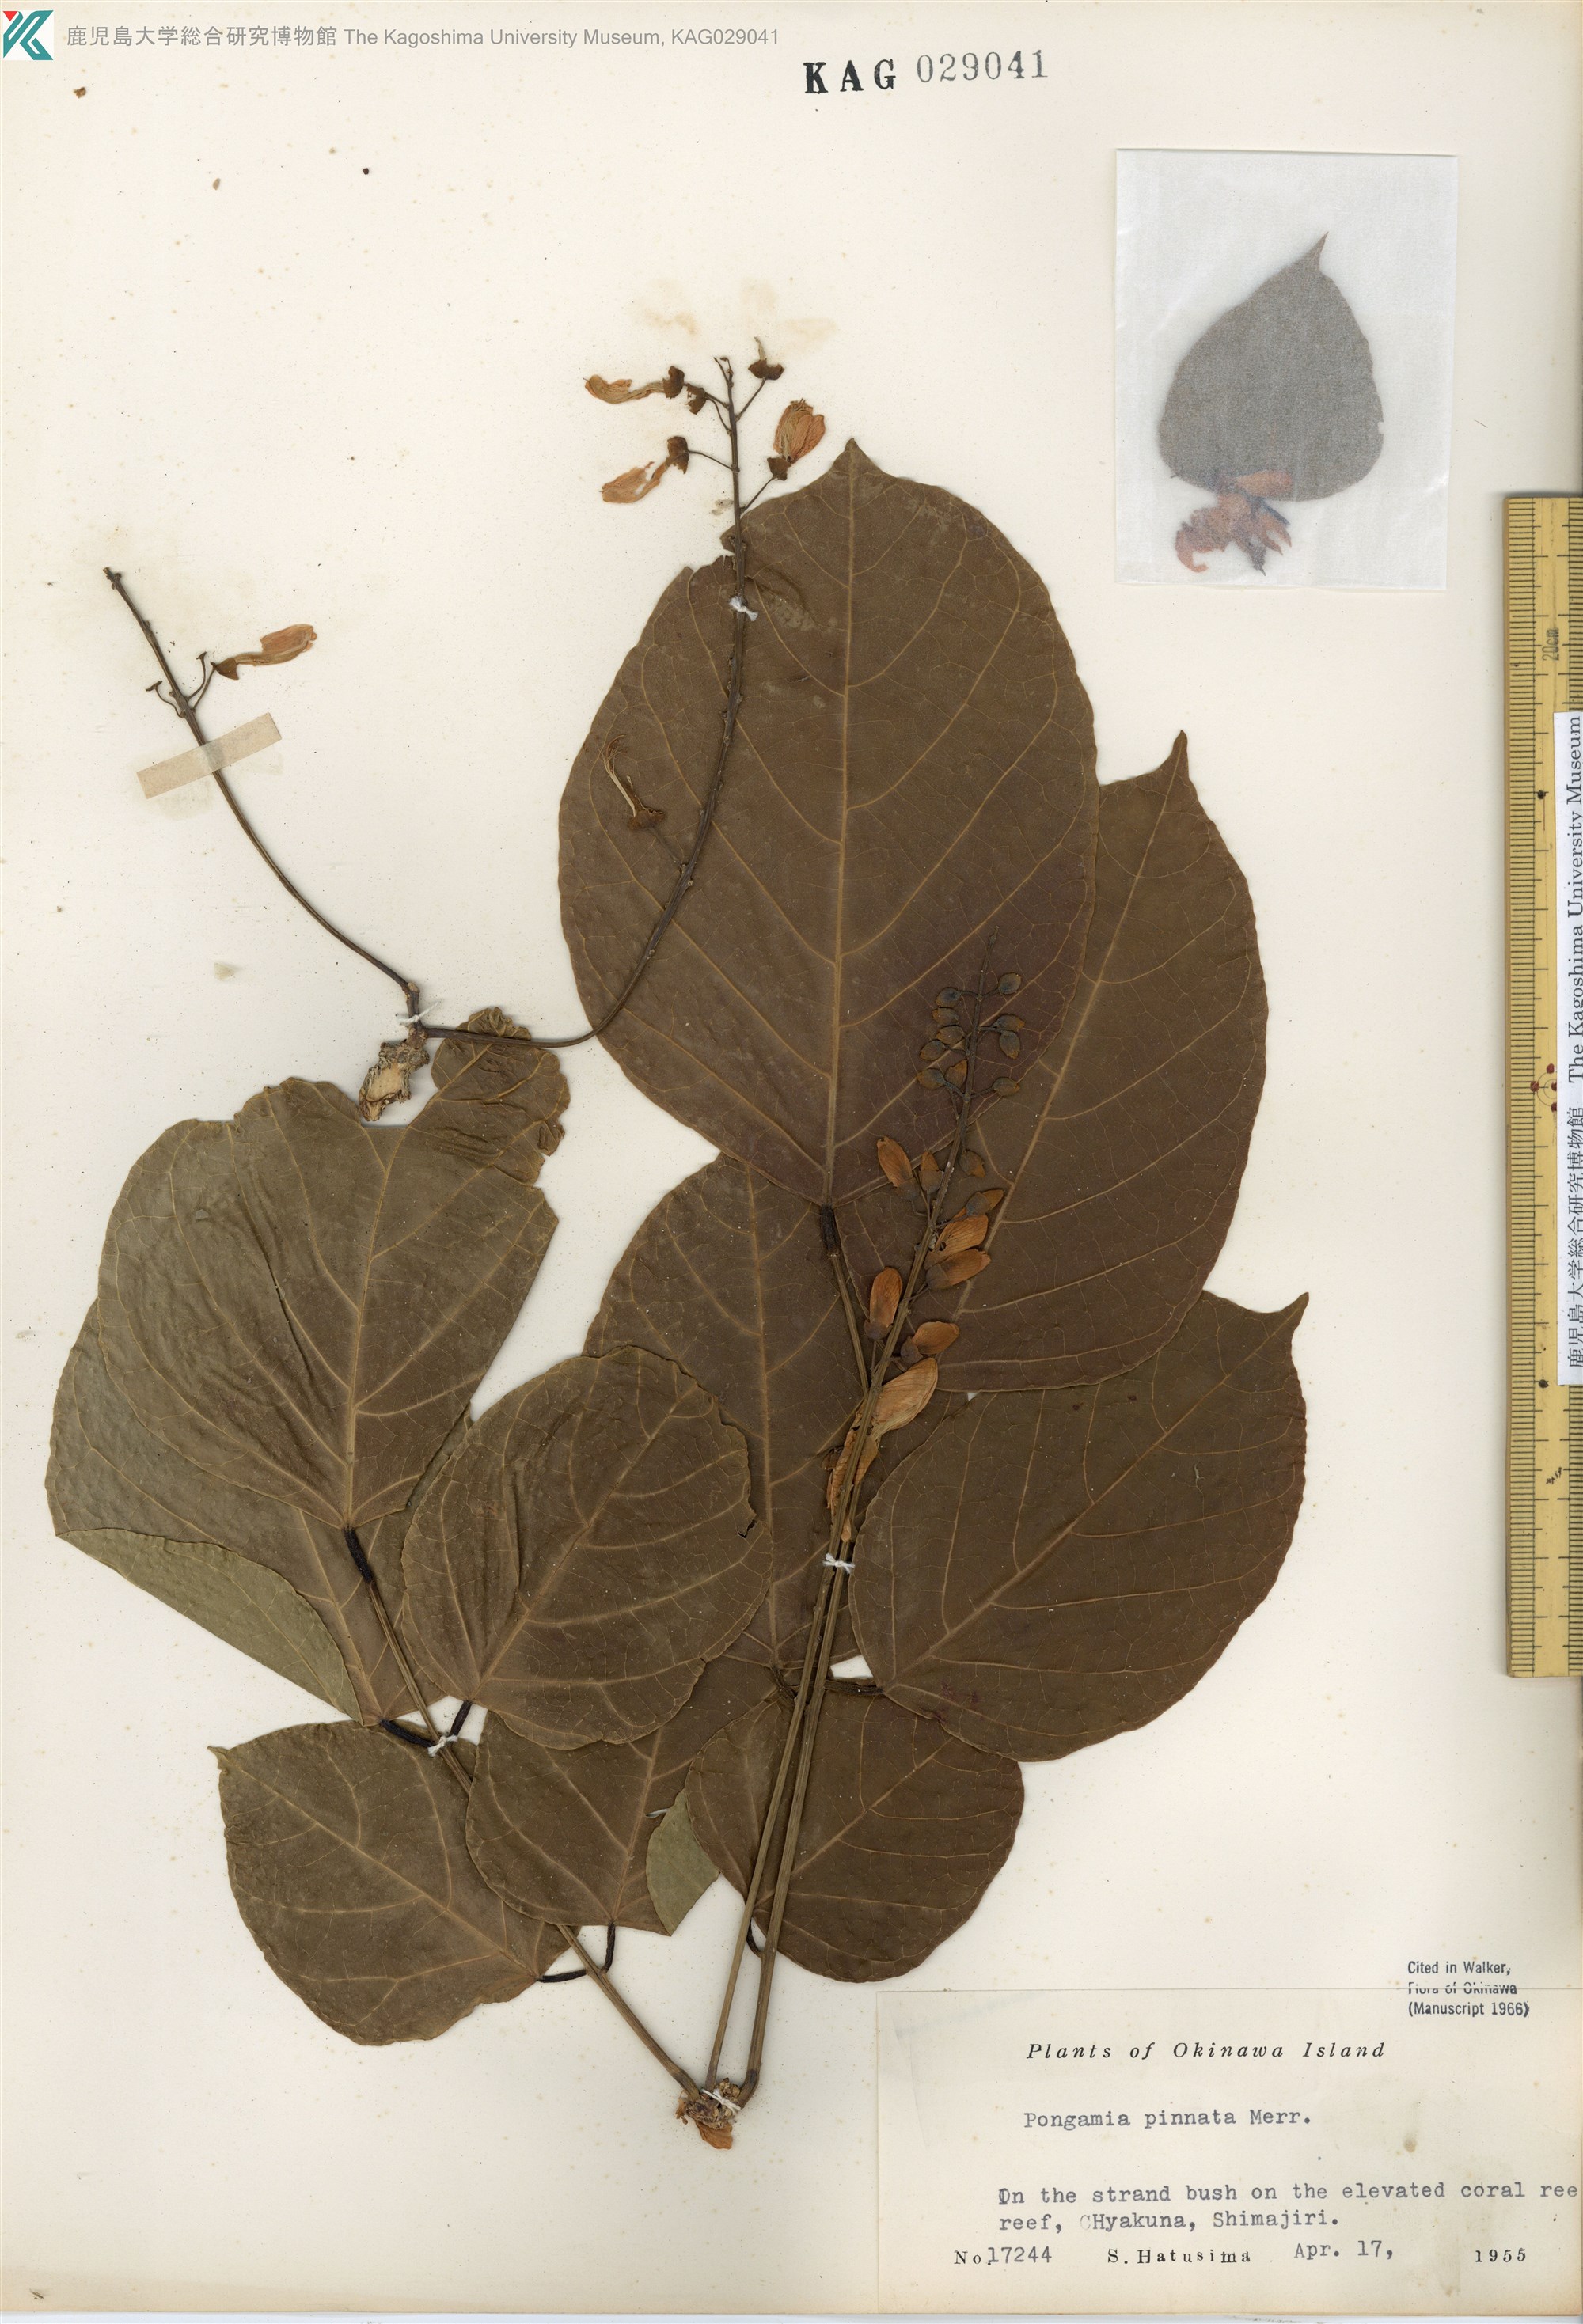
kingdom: Plantae
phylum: Tracheophyta
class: Magnoliopsida
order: Fabales
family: Fabaceae
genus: Pongamia
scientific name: Pongamia pinnata
